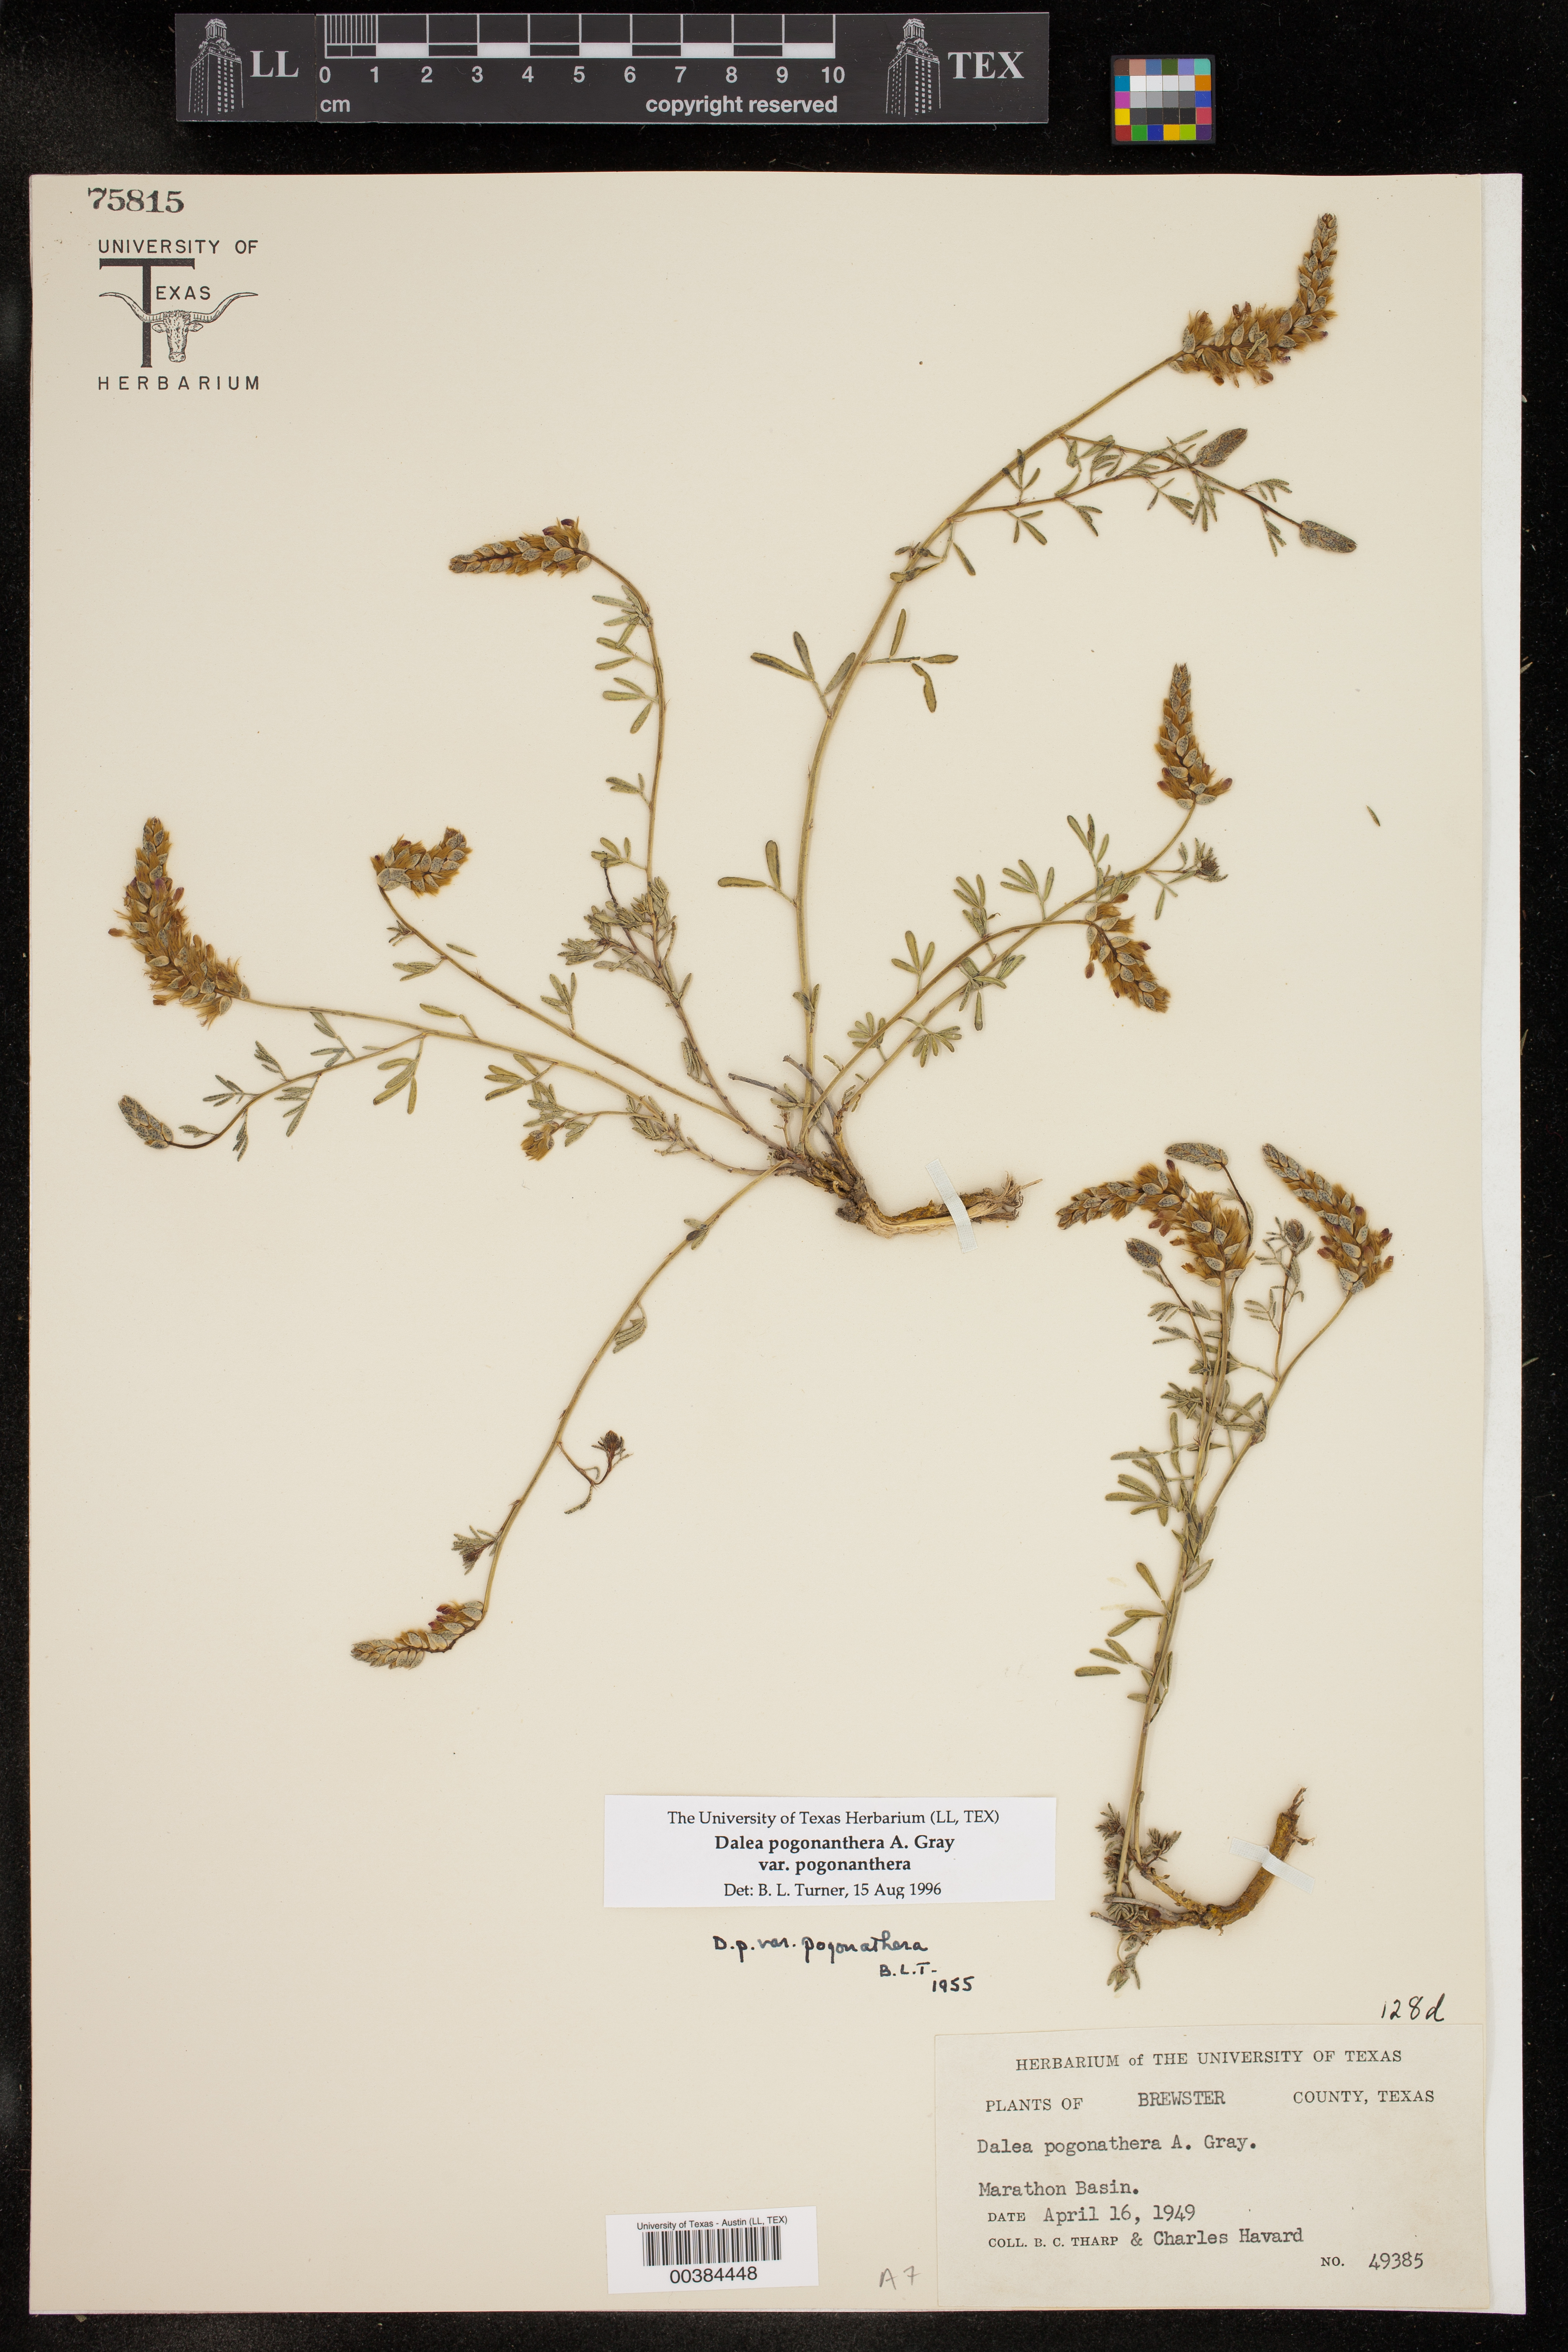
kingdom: Plantae
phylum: Tracheophyta
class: Magnoliopsida
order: Fabales
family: Fabaceae
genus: Dalea
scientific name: Dalea pogonathera
